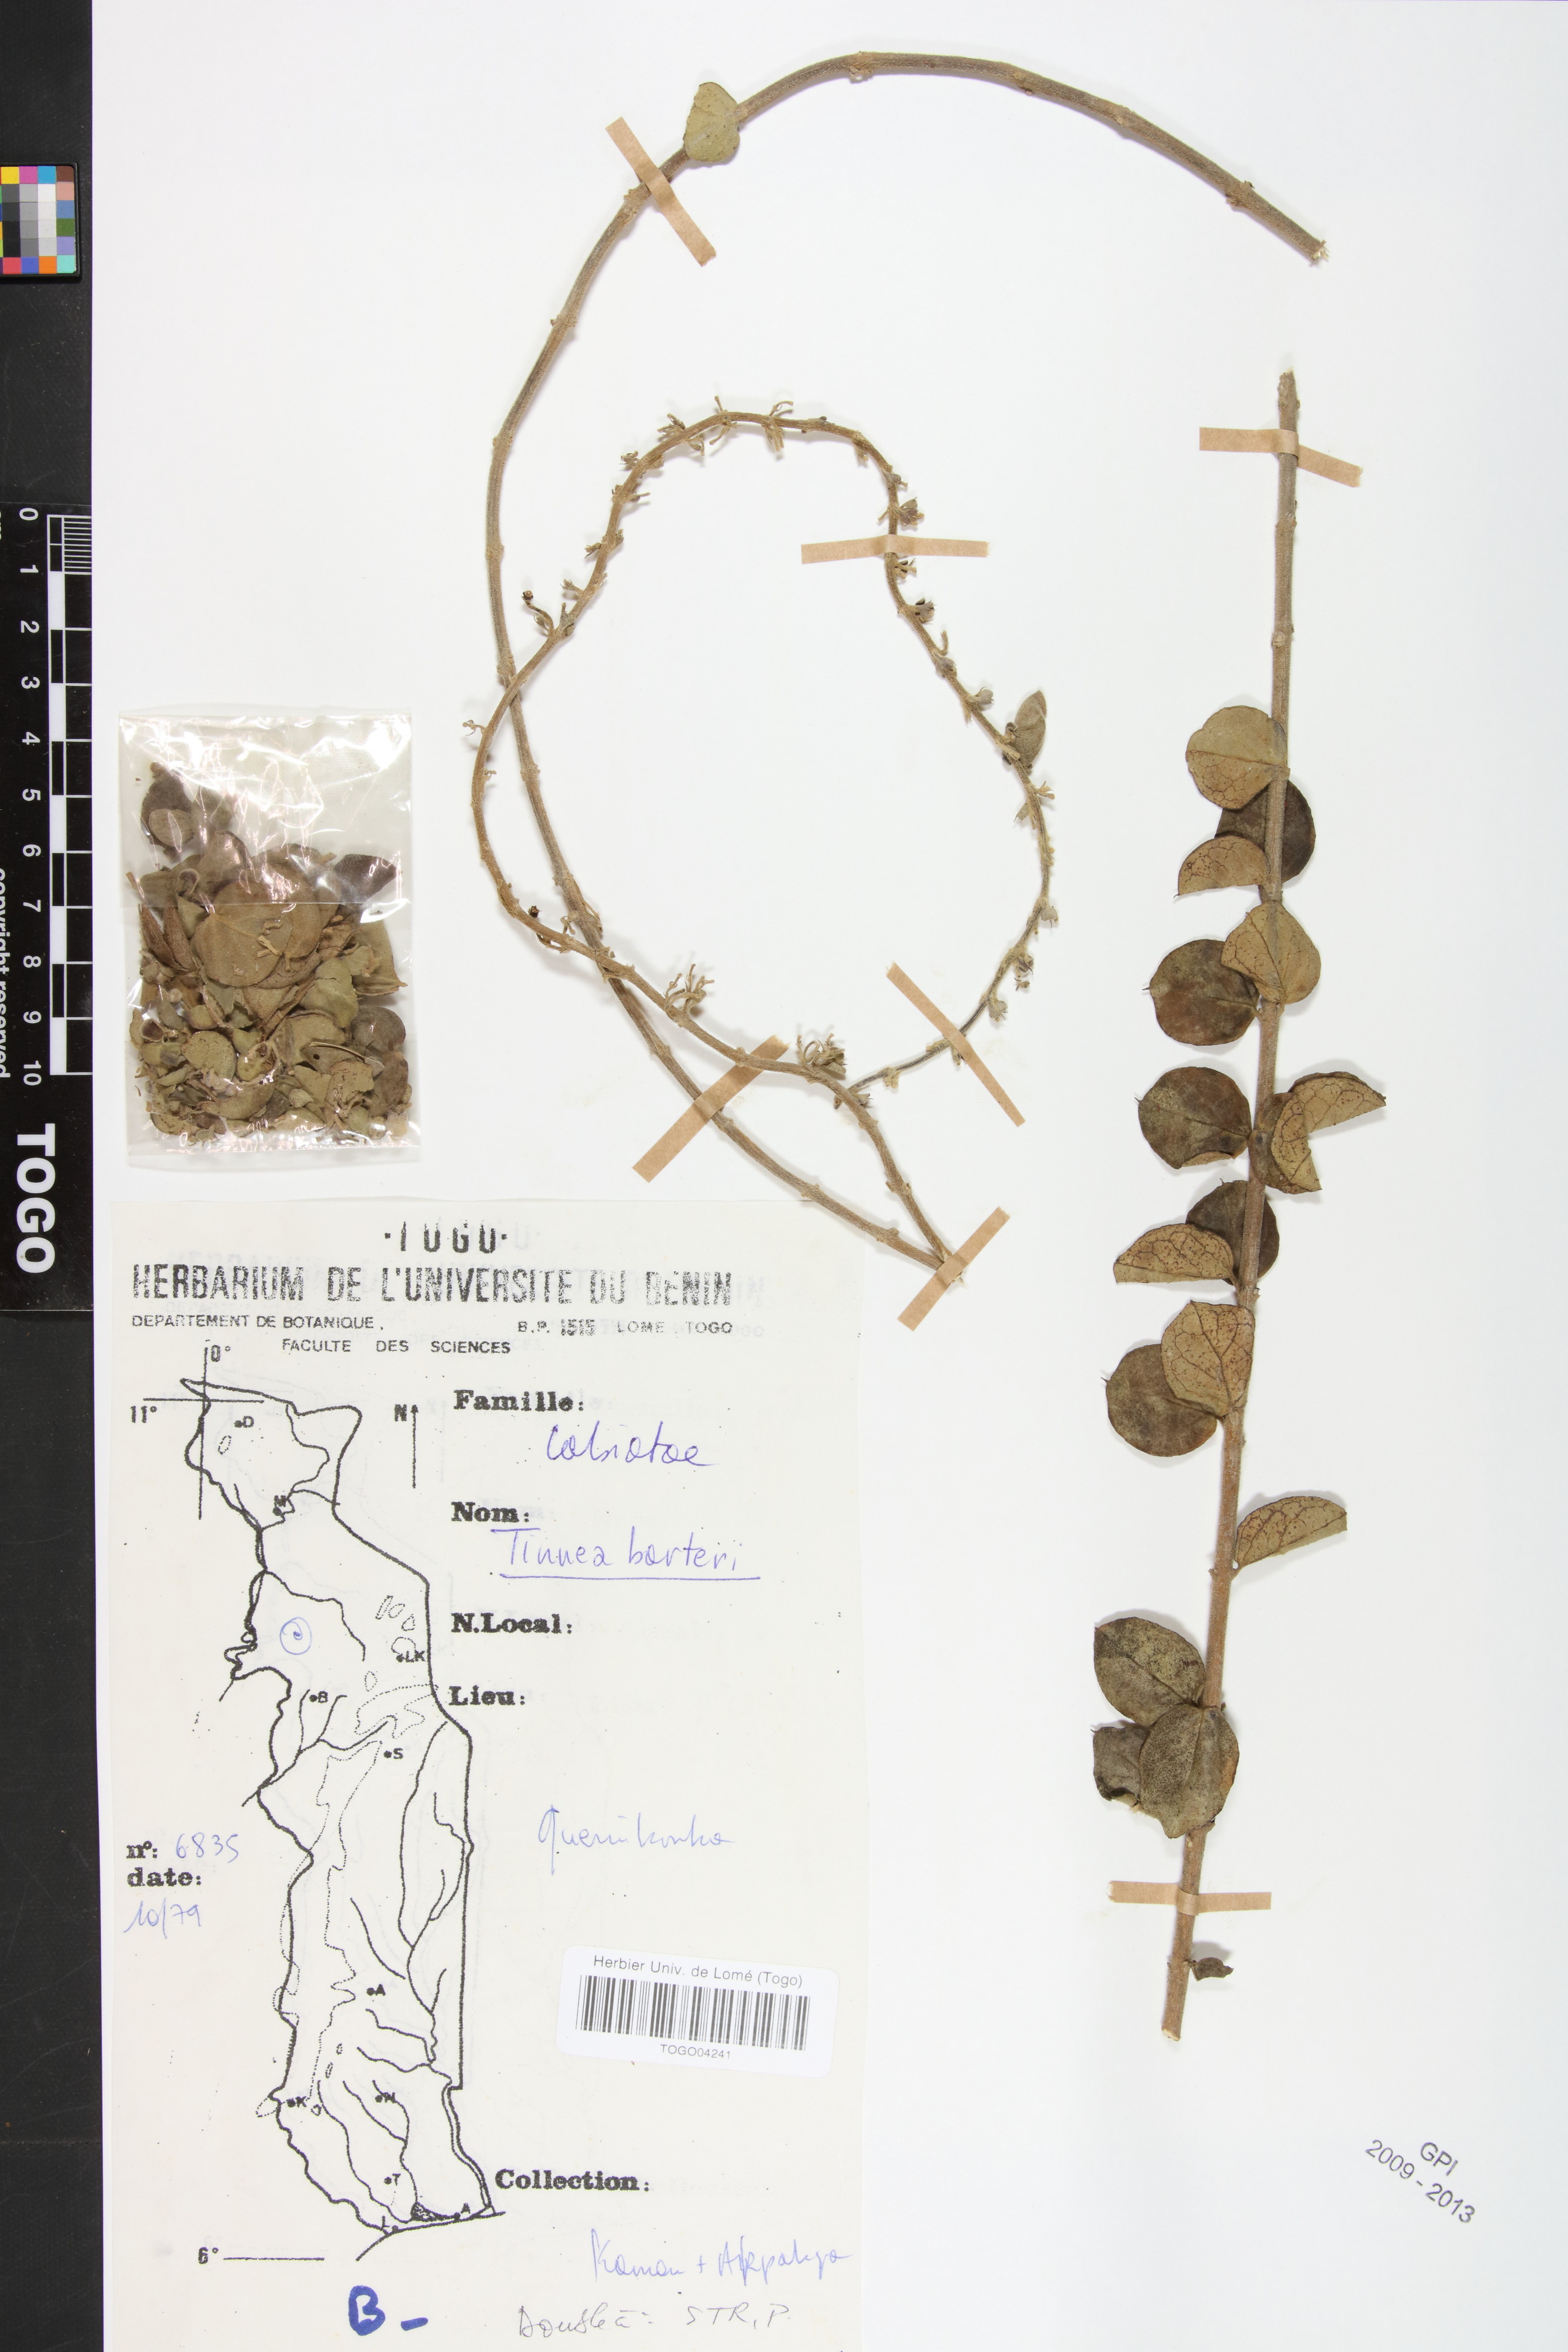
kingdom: Plantae
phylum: Tracheophyta
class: Magnoliopsida
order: Lamiales
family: Lamiaceae
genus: Tinnea
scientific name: Tinnea barteri
